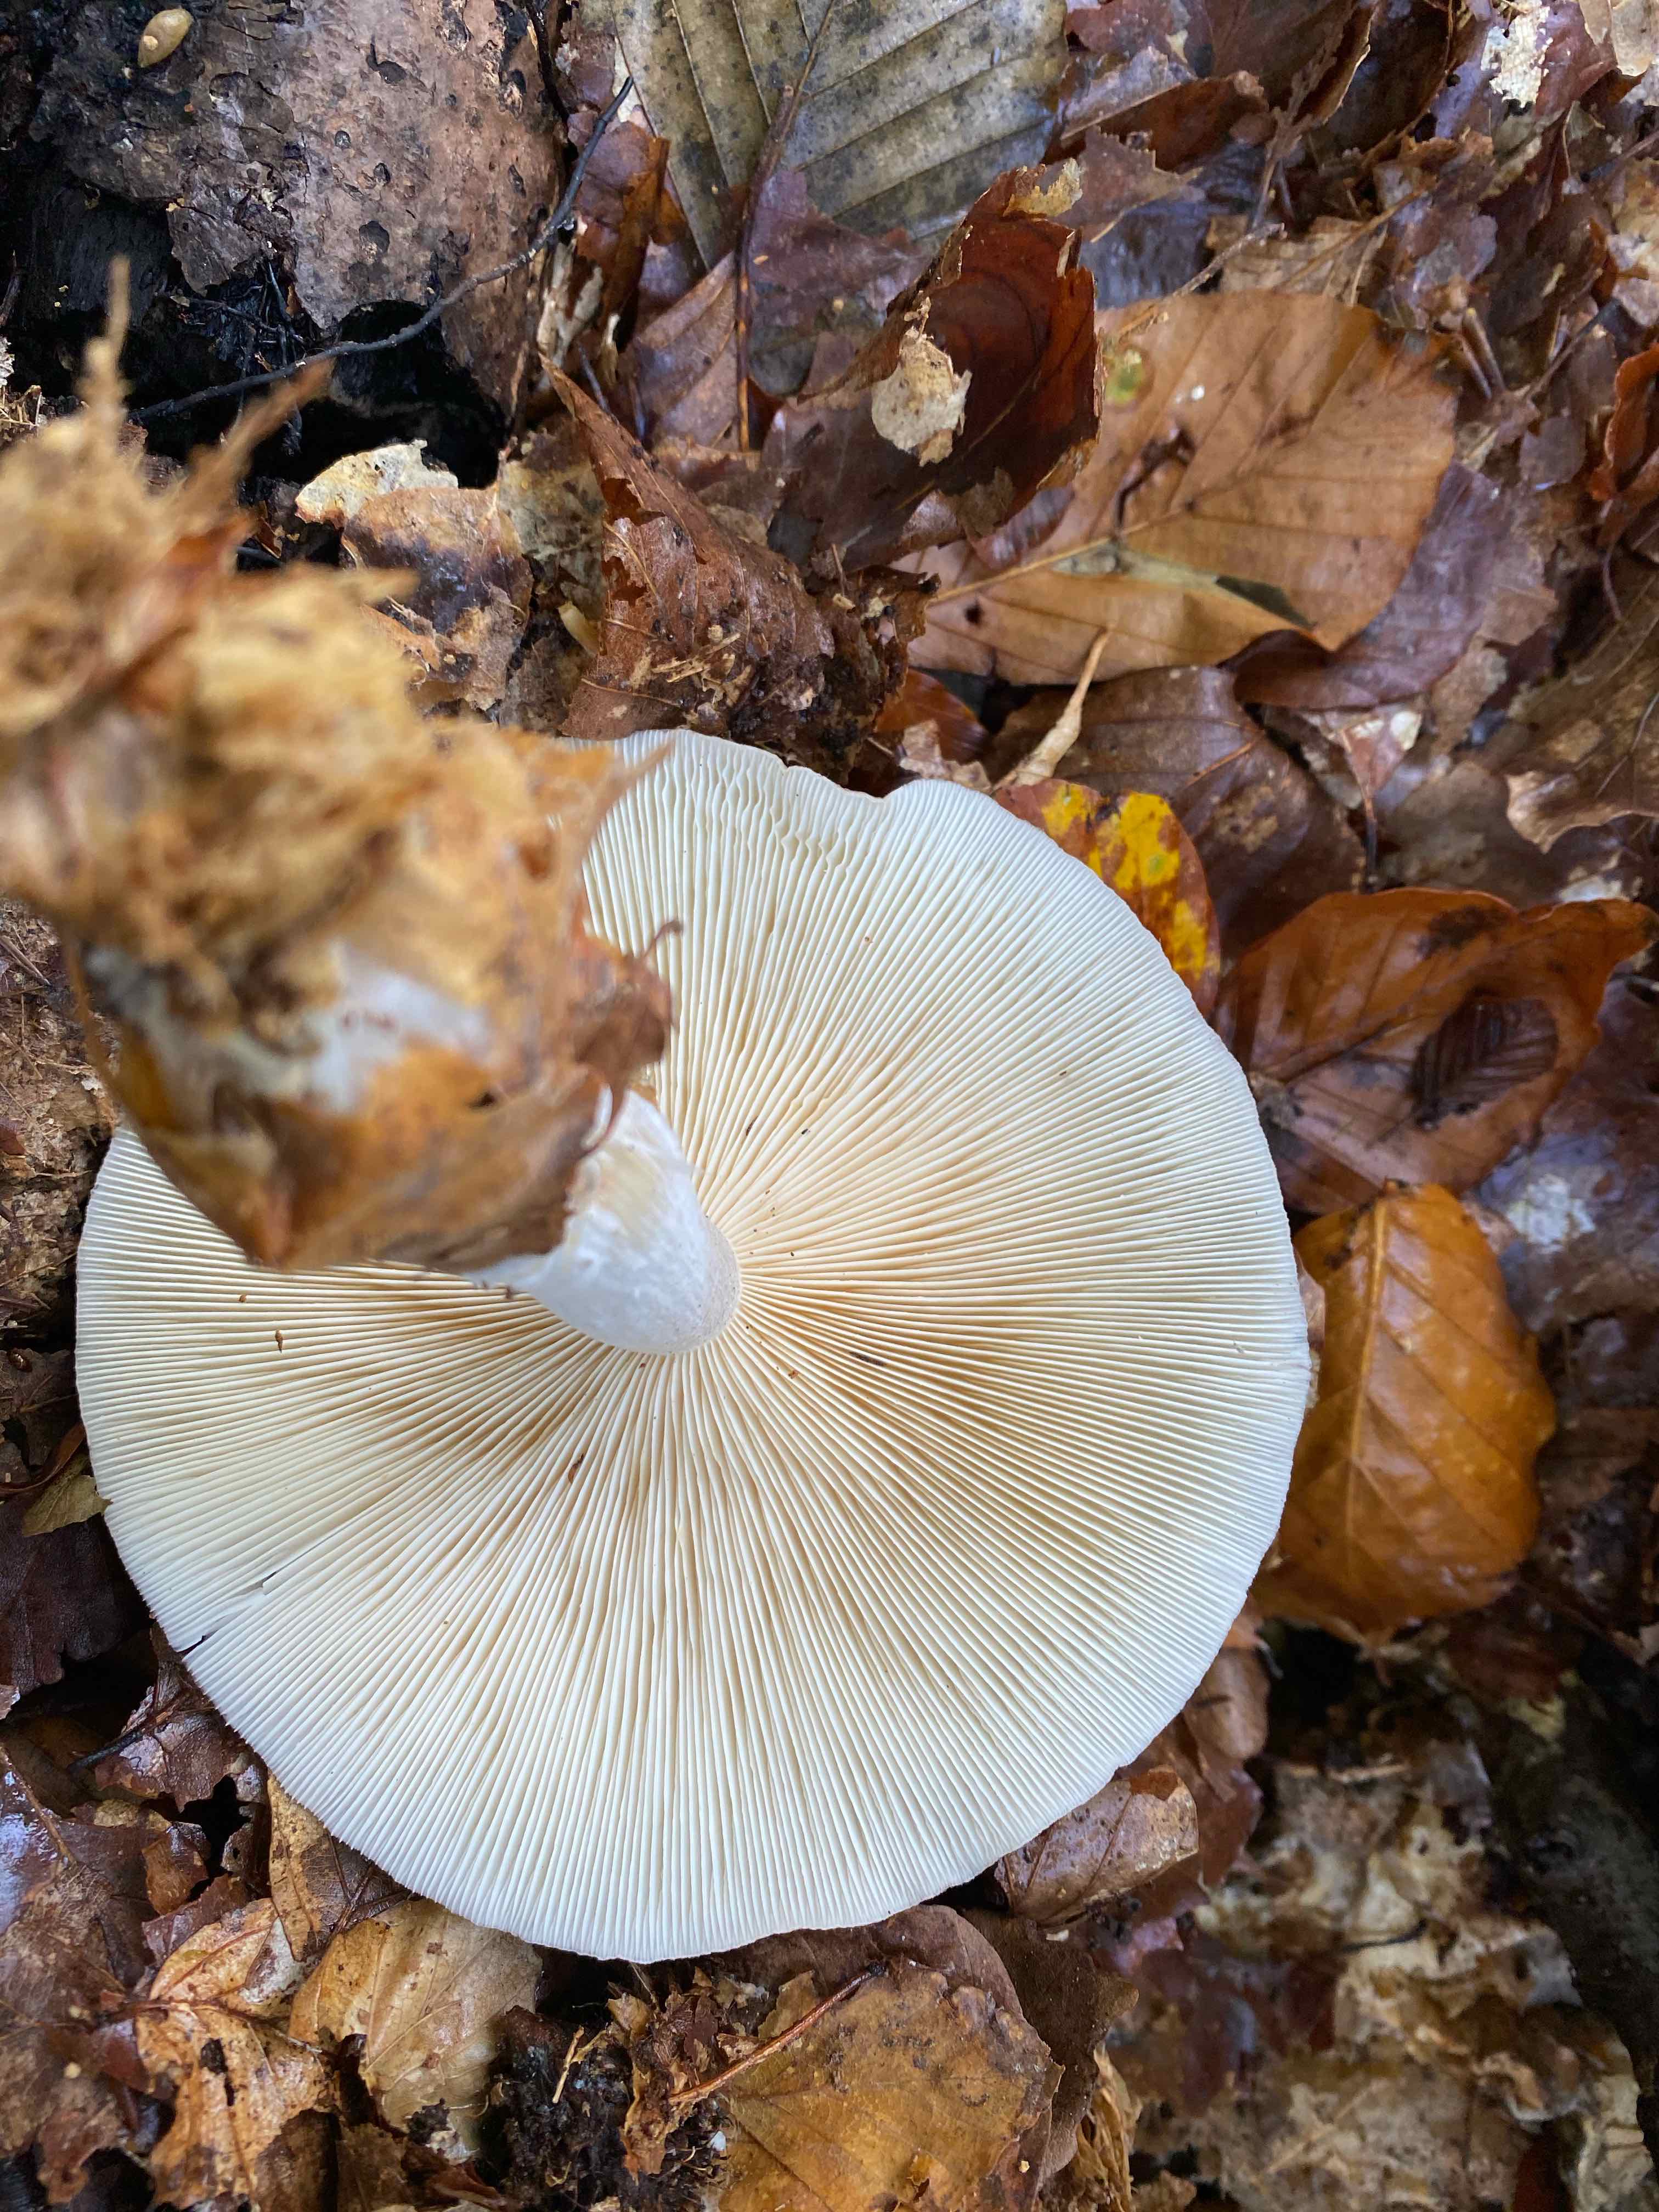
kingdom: Fungi
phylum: Basidiomycota
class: Agaricomycetes
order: Agaricales
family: Tricholomataceae
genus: Clitocybe
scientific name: Clitocybe nebularis
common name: tåge-tragthat
